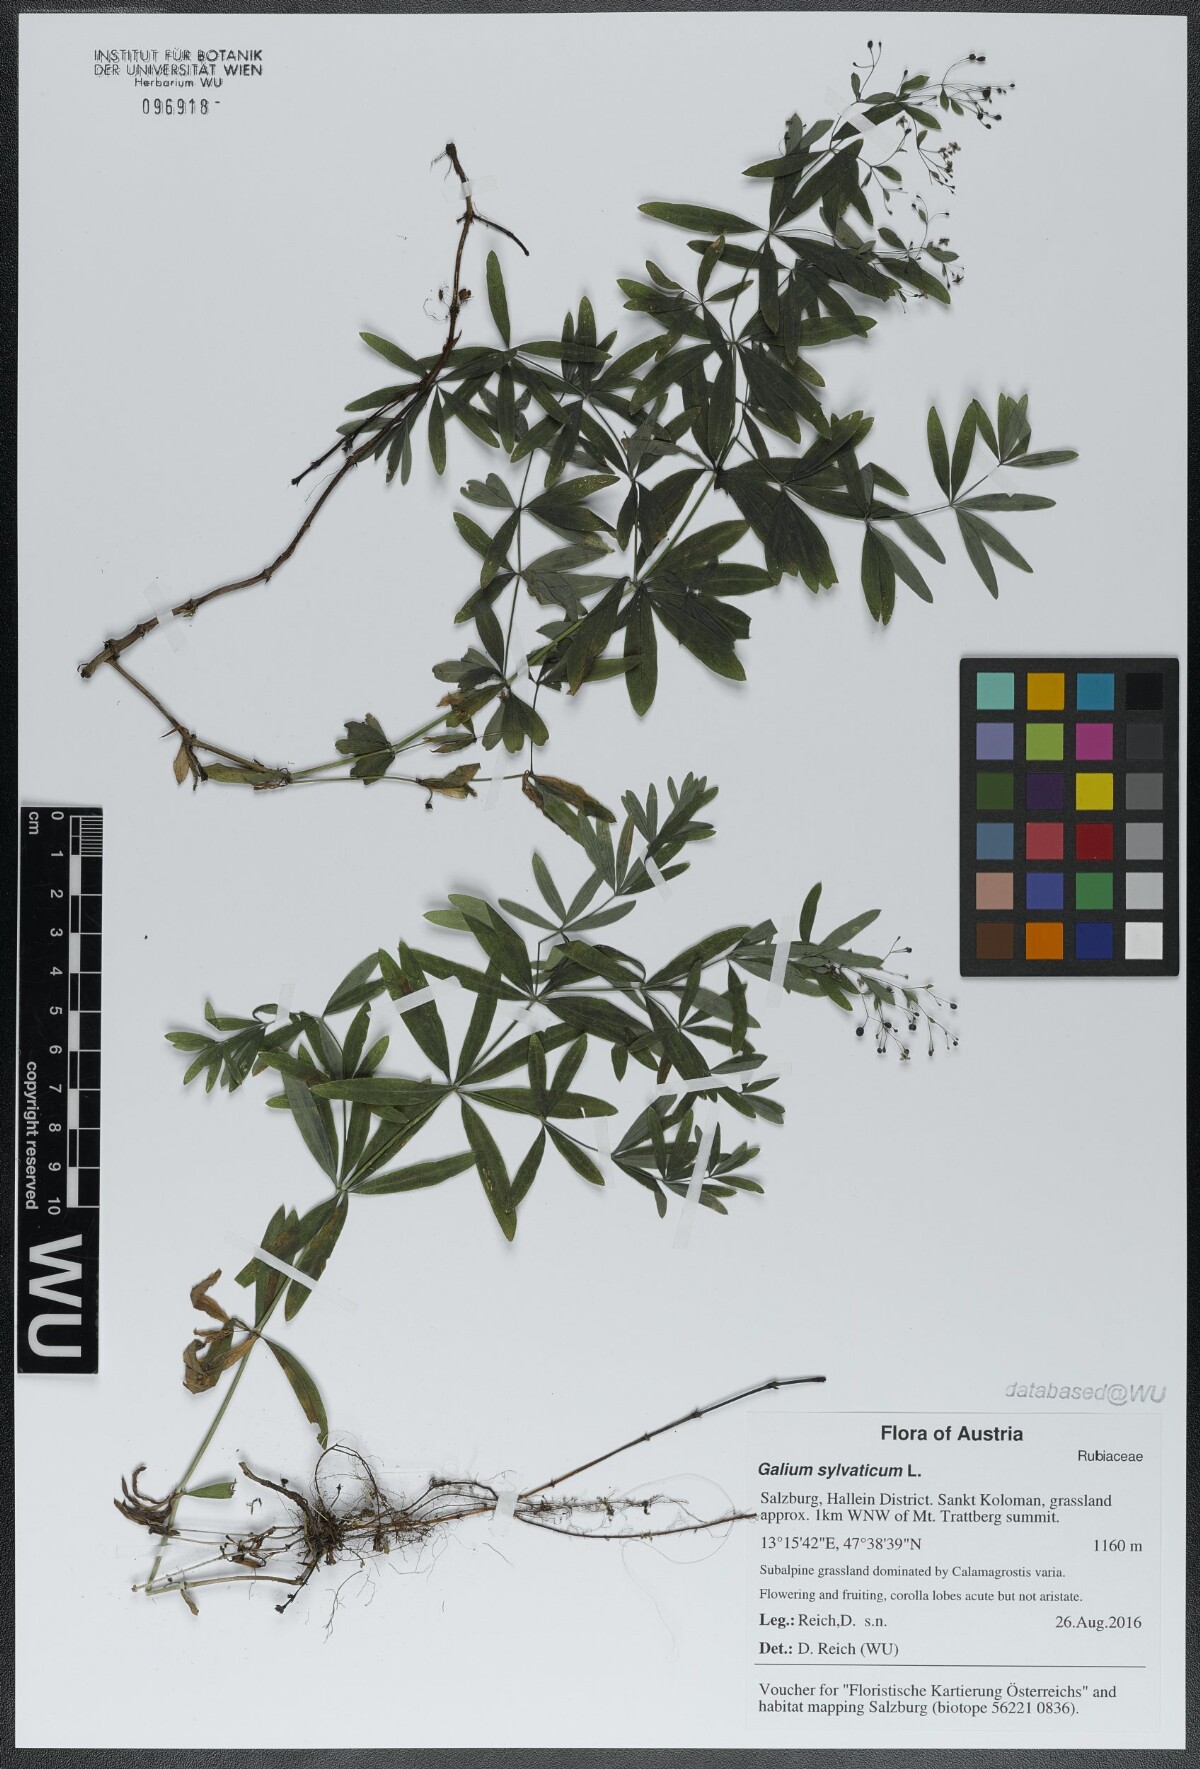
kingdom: Plantae
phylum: Tracheophyta
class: Magnoliopsida
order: Gentianales
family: Rubiaceae
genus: Galium
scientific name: Galium sylvaticum
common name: Wood bedstraw
